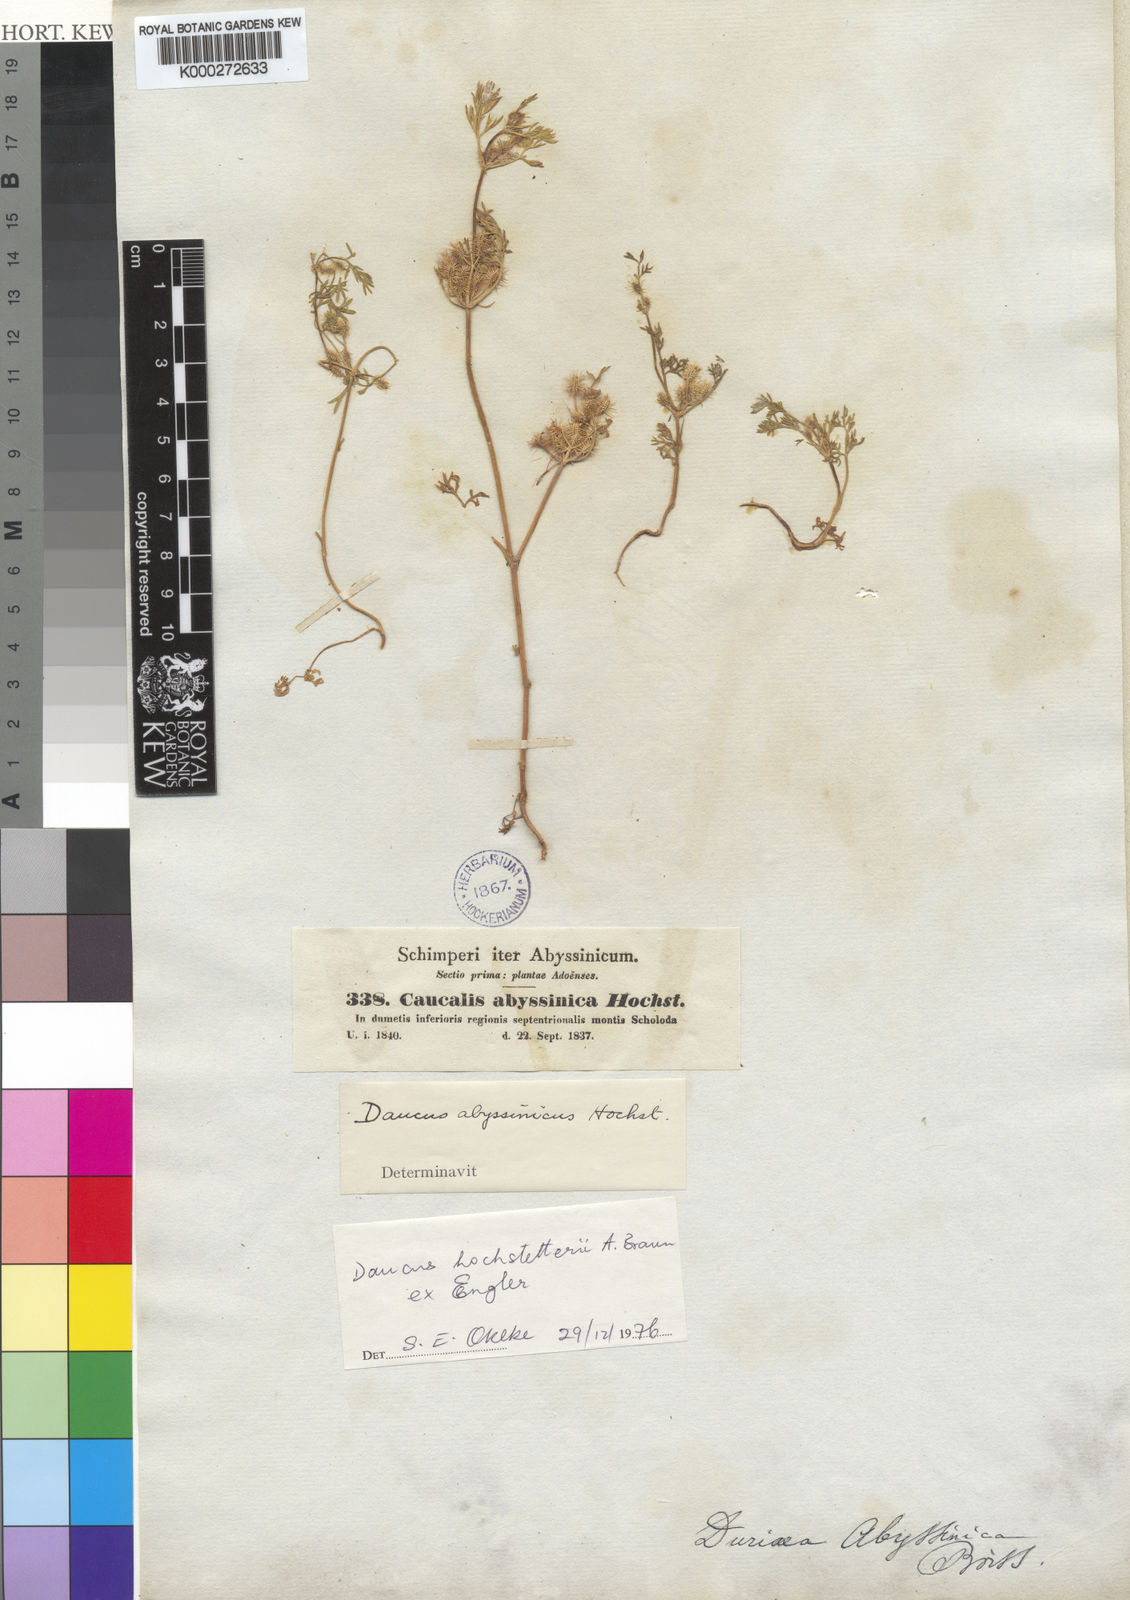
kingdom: Plantae
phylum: Tracheophyta
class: Magnoliopsida
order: Apiales
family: Apiaceae
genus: Daucus
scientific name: Daucus
